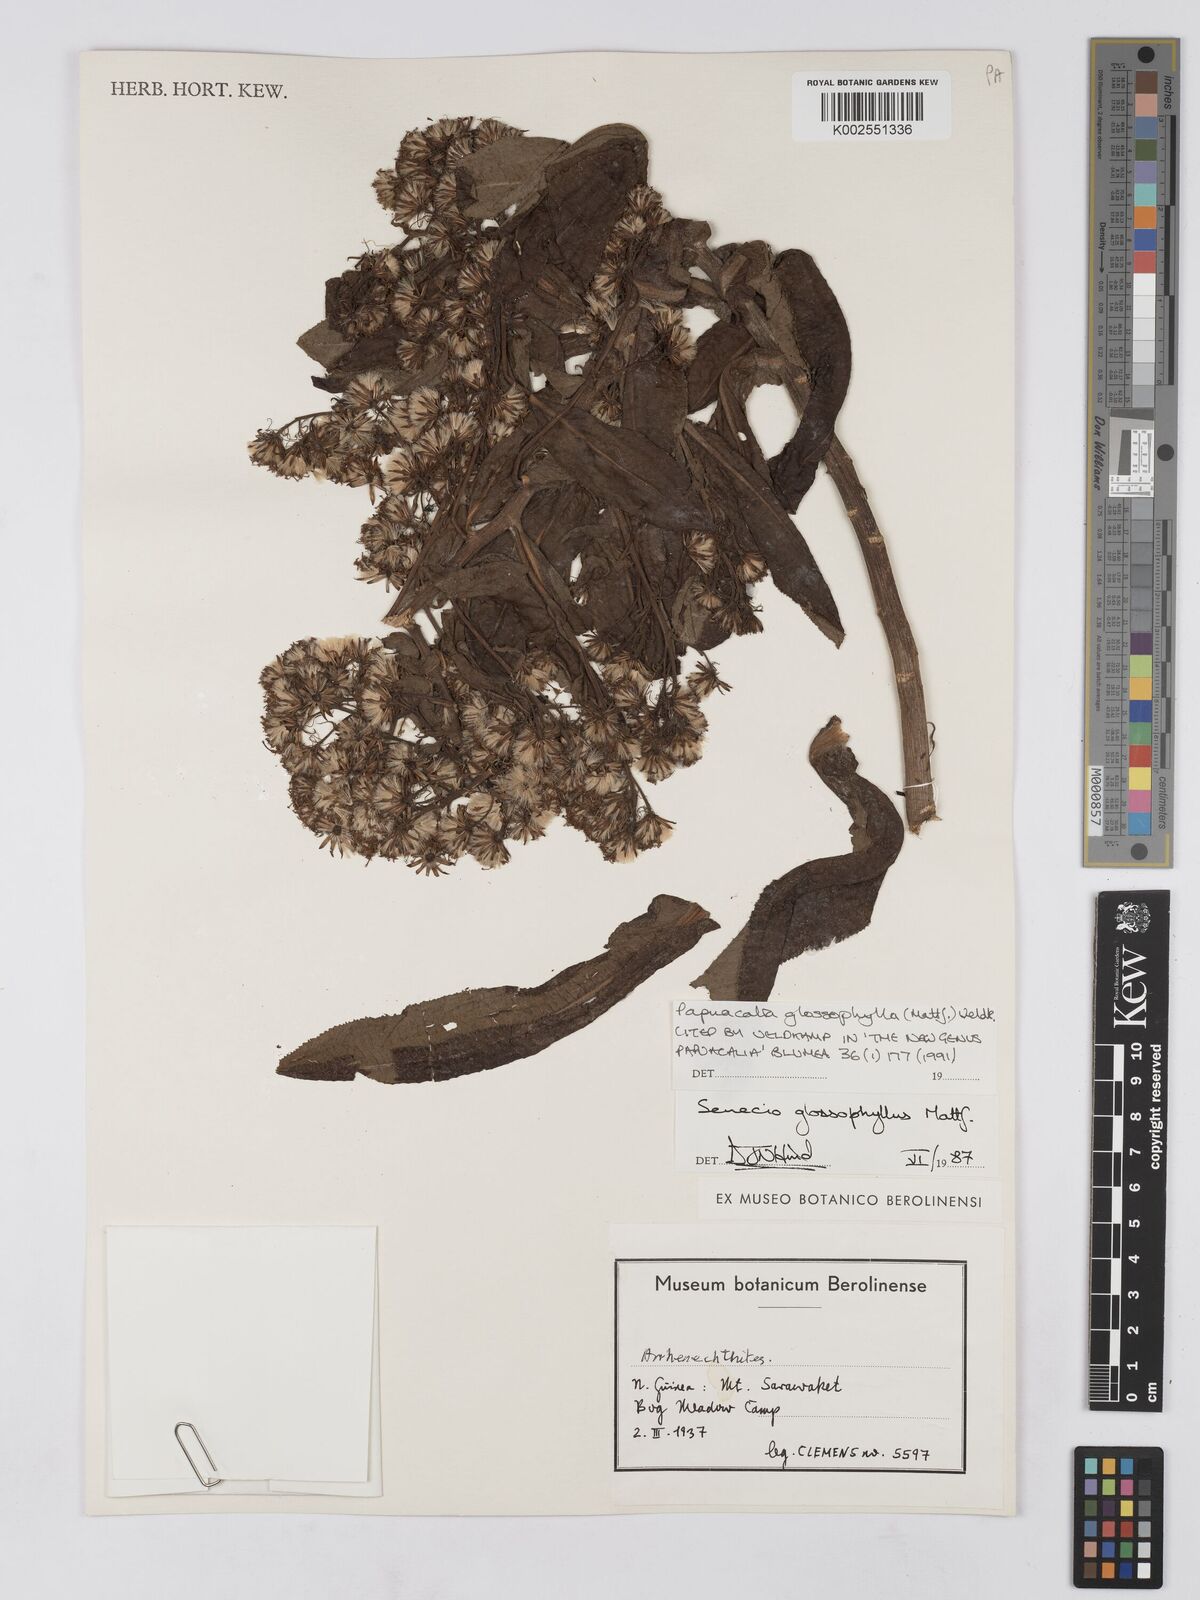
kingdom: Plantae
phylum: Tracheophyta
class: Magnoliopsida
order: Asterales
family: Asteraceae
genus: Papuacalia
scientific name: Papuacalia glossophylla
